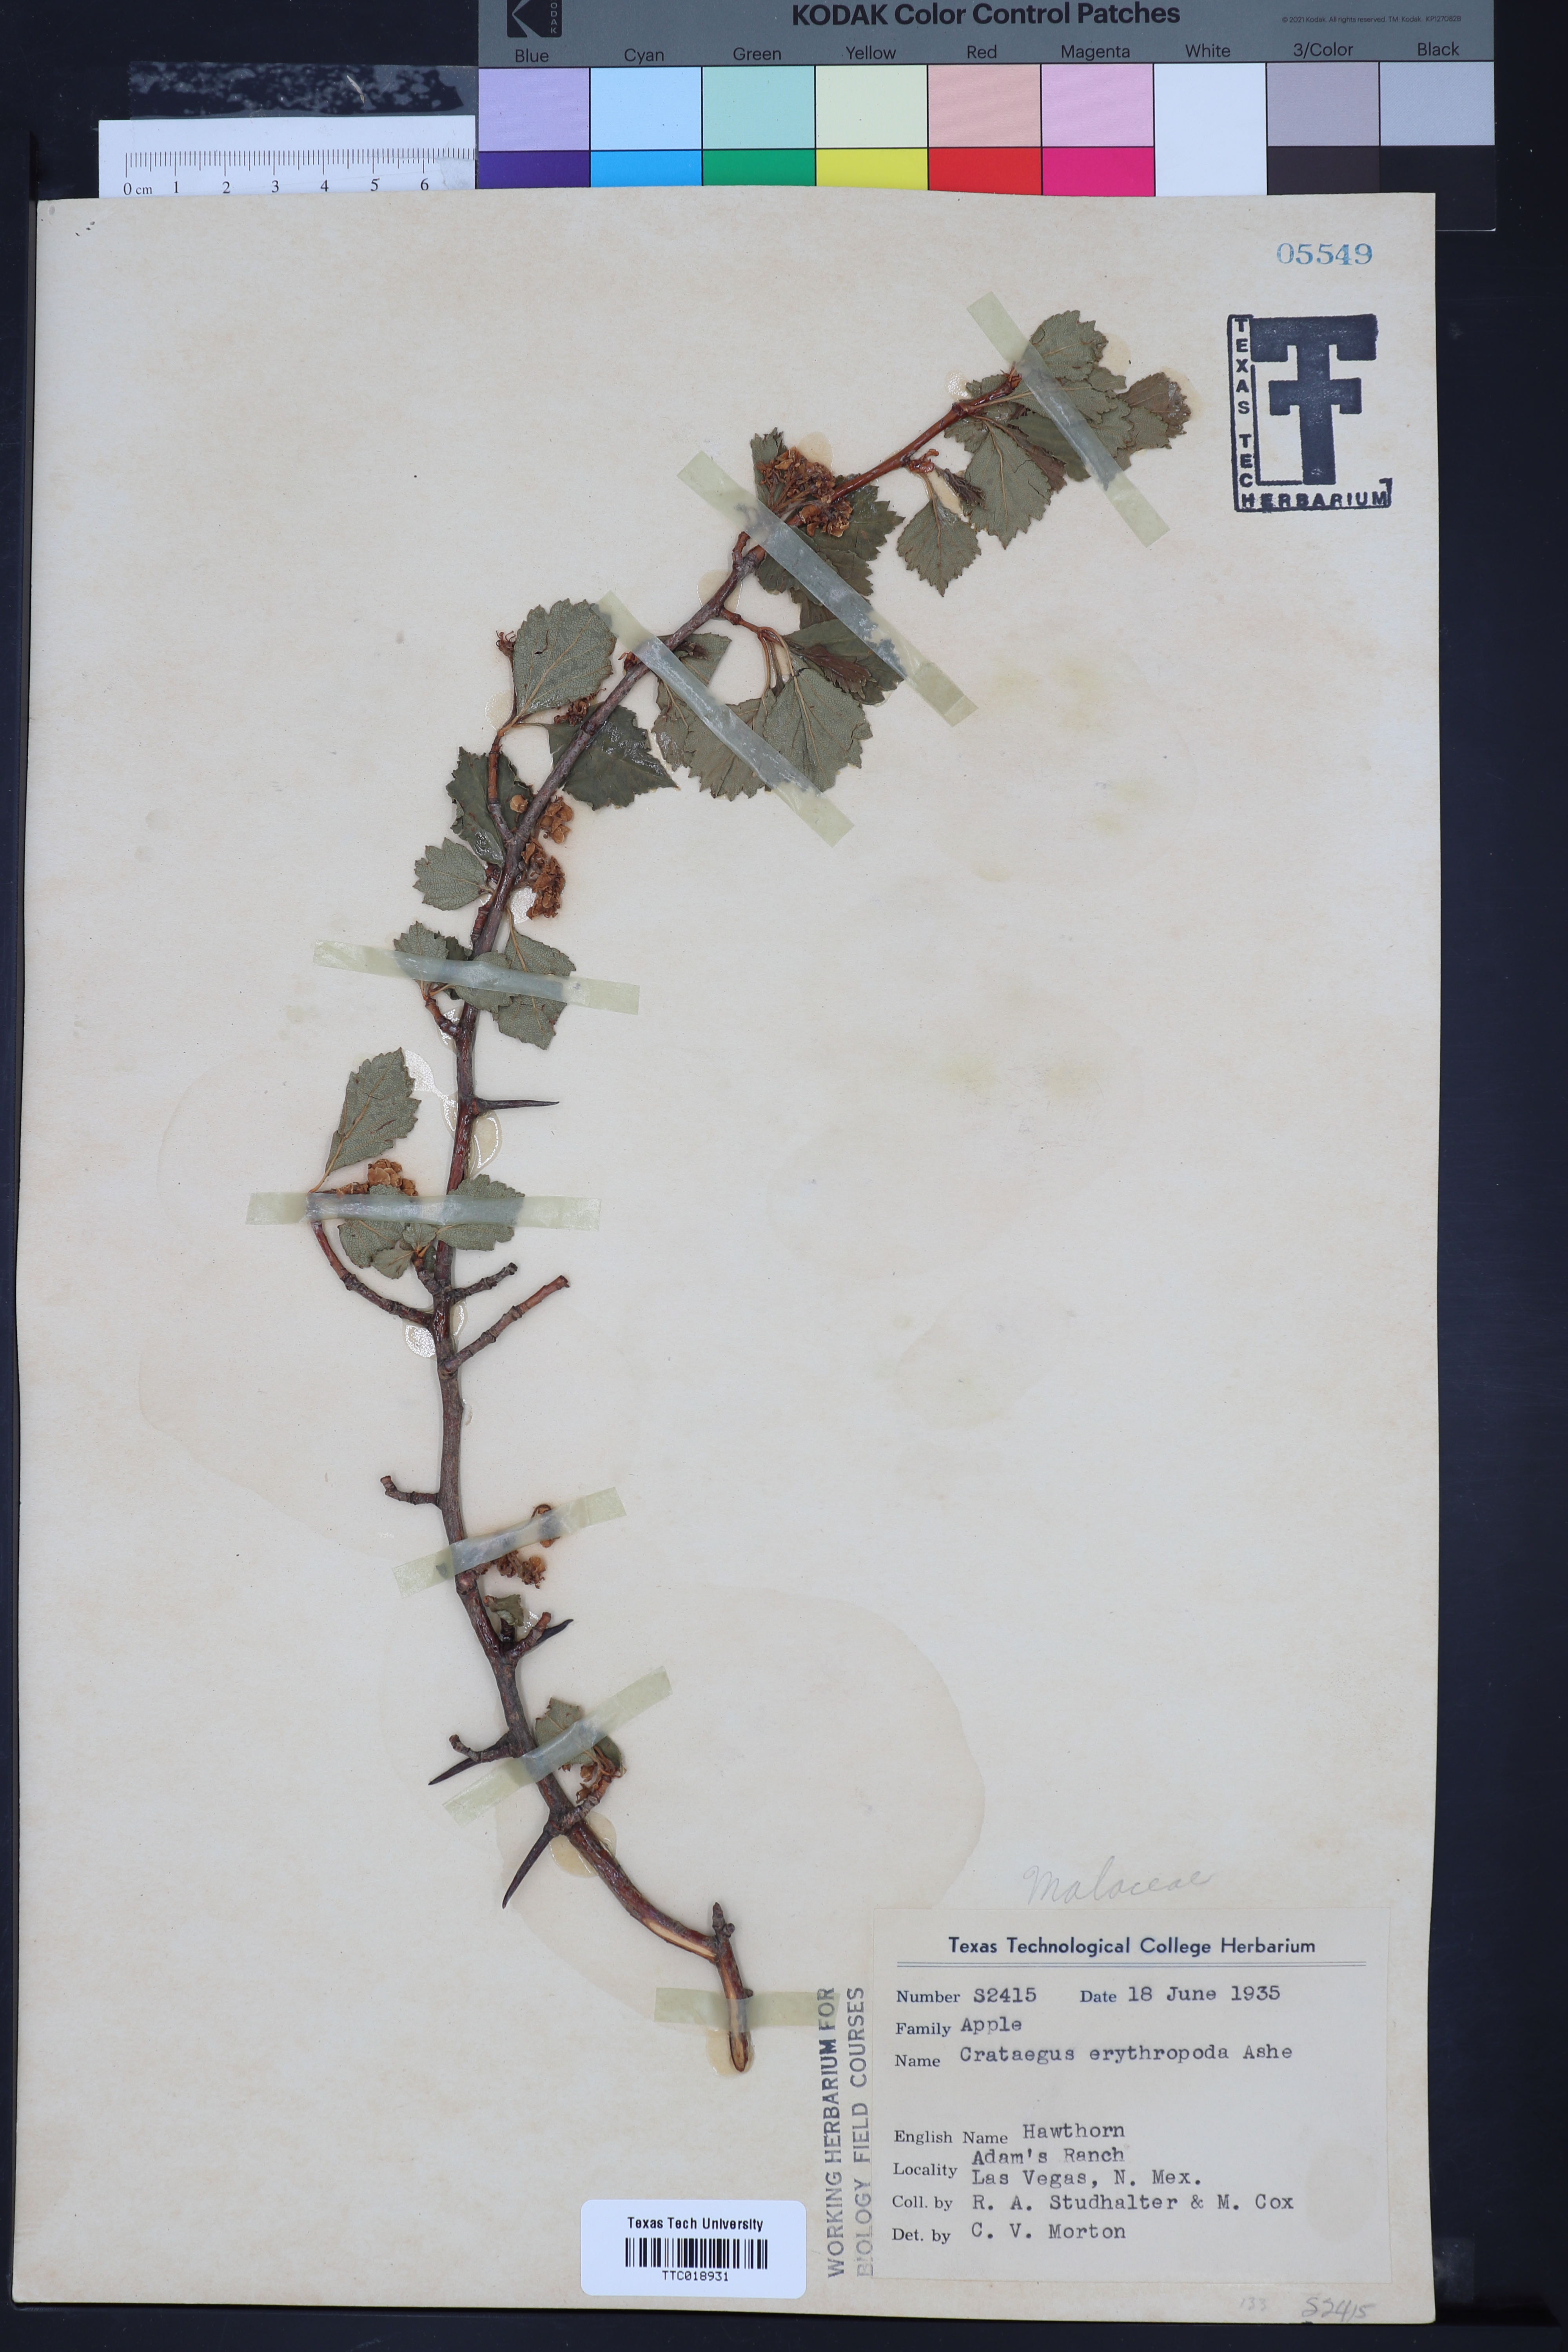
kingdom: Plantae
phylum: Tracheophyta
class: Magnoliopsida
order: Rosales
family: Rosaceae
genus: Crataegus
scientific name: Crataegus erythropoda
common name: Cerro hawthorn
